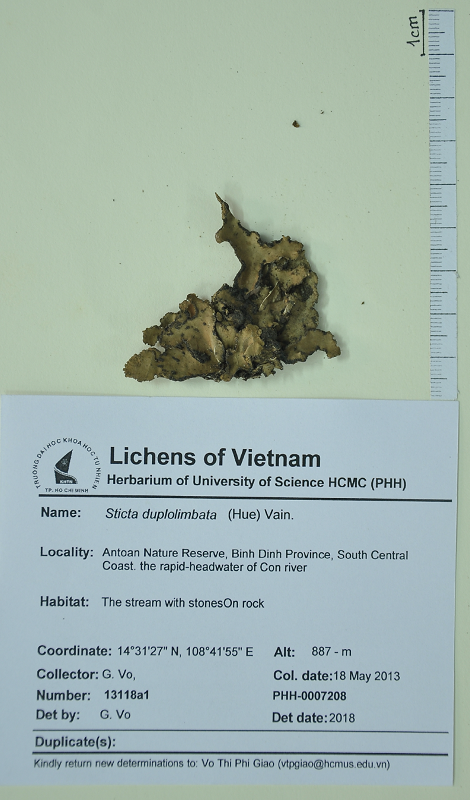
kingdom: Fungi
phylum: Ascomycota
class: Lecanoromycetes
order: Peltigerales
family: Lobariaceae
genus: Sticta
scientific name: Sticta duplolimbata
